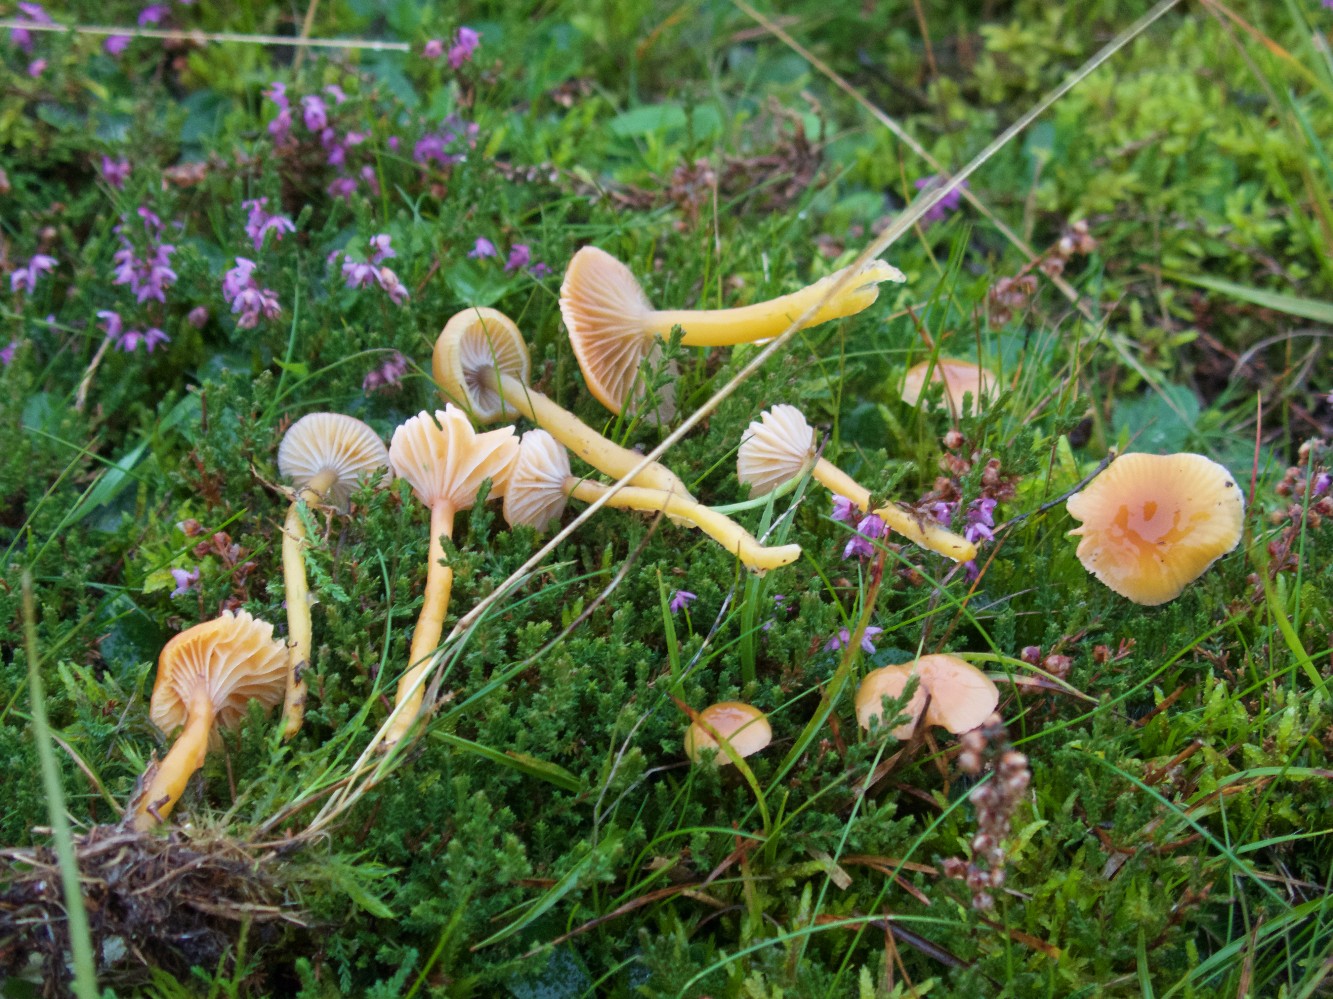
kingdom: Fungi
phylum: Basidiomycota
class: Agaricomycetes
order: Agaricales
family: Hygrophoraceae
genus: Gliophorus
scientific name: Gliophorus laetus
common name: brusk-vokshat
